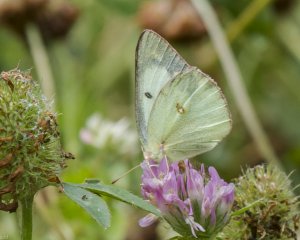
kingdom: Animalia
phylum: Arthropoda
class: Insecta
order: Lepidoptera
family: Pieridae
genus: Colias
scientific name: Colias philodice
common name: Clouded Sulphur
